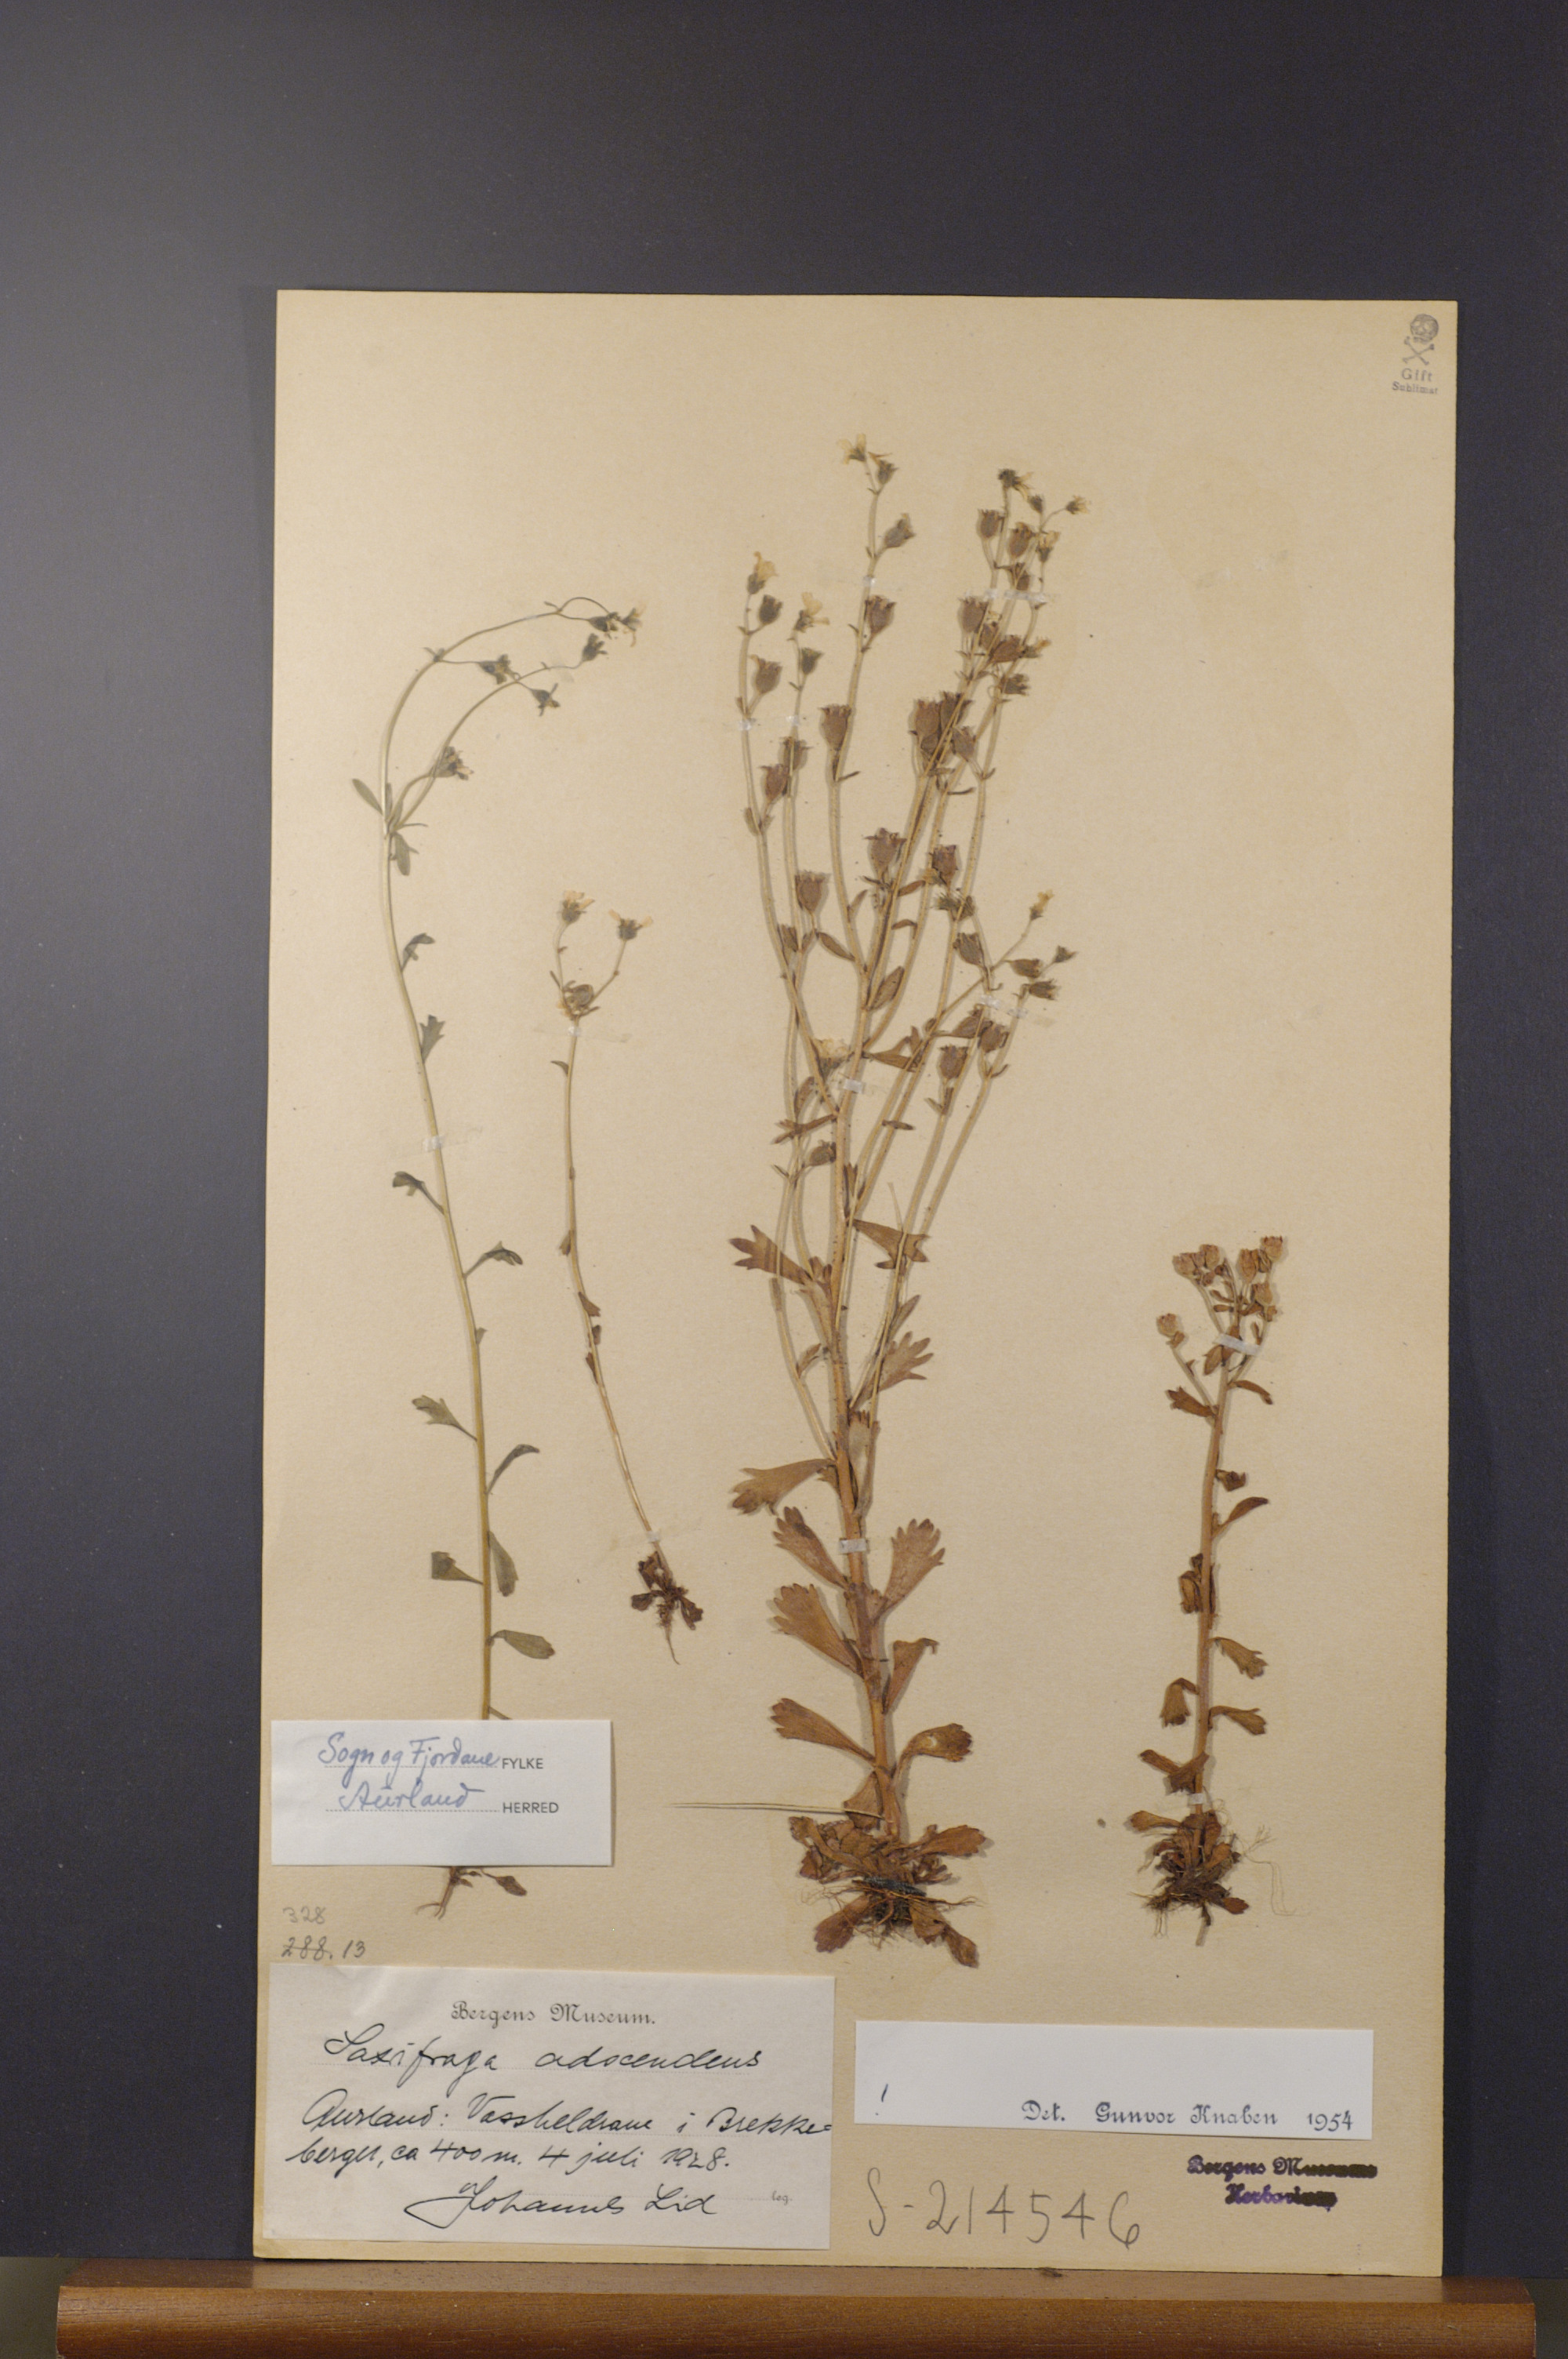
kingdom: Plantae
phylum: Tracheophyta
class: Magnoliopsida
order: Saxifragales
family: Saxifragaceae
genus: Saxifraga
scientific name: Saxifraga adscendens
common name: Ascending saxifrage
